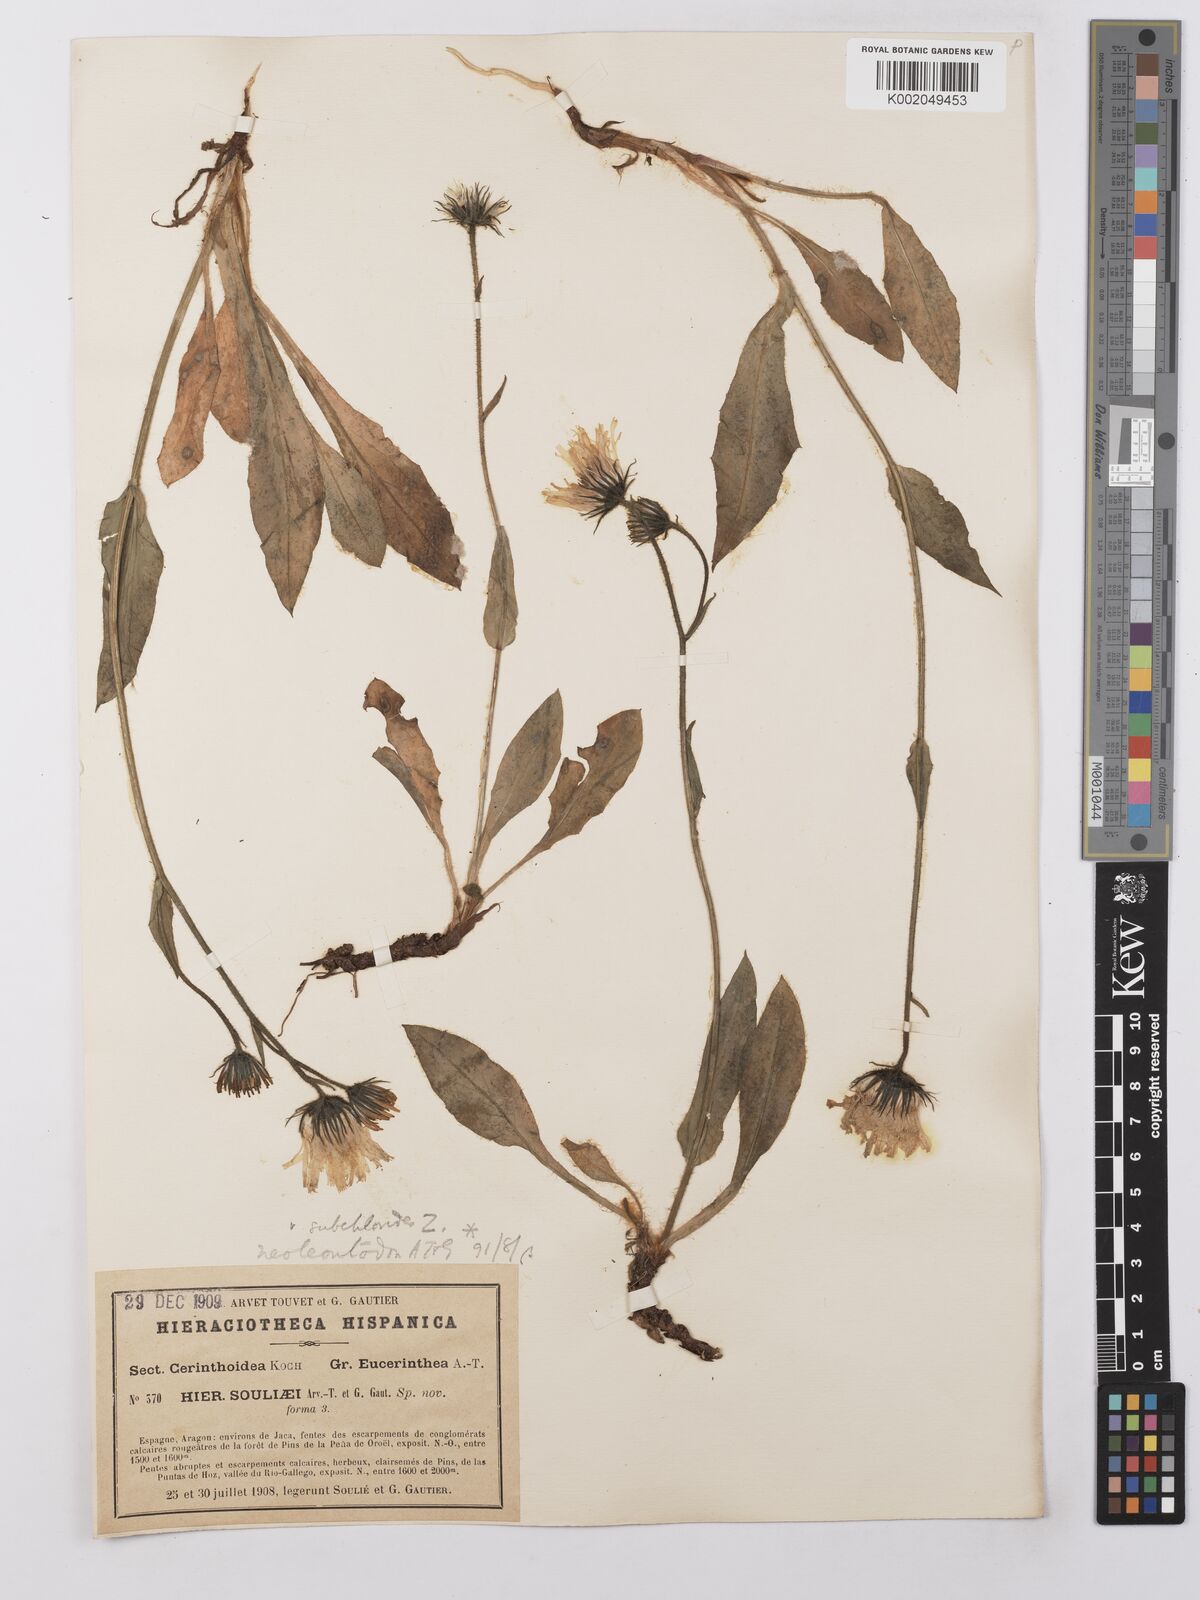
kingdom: Plantae
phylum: Tracheophyta
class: Magnoliopsida
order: Asterales
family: Asteraceae
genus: Hieracium
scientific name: Hieracium ramondii
